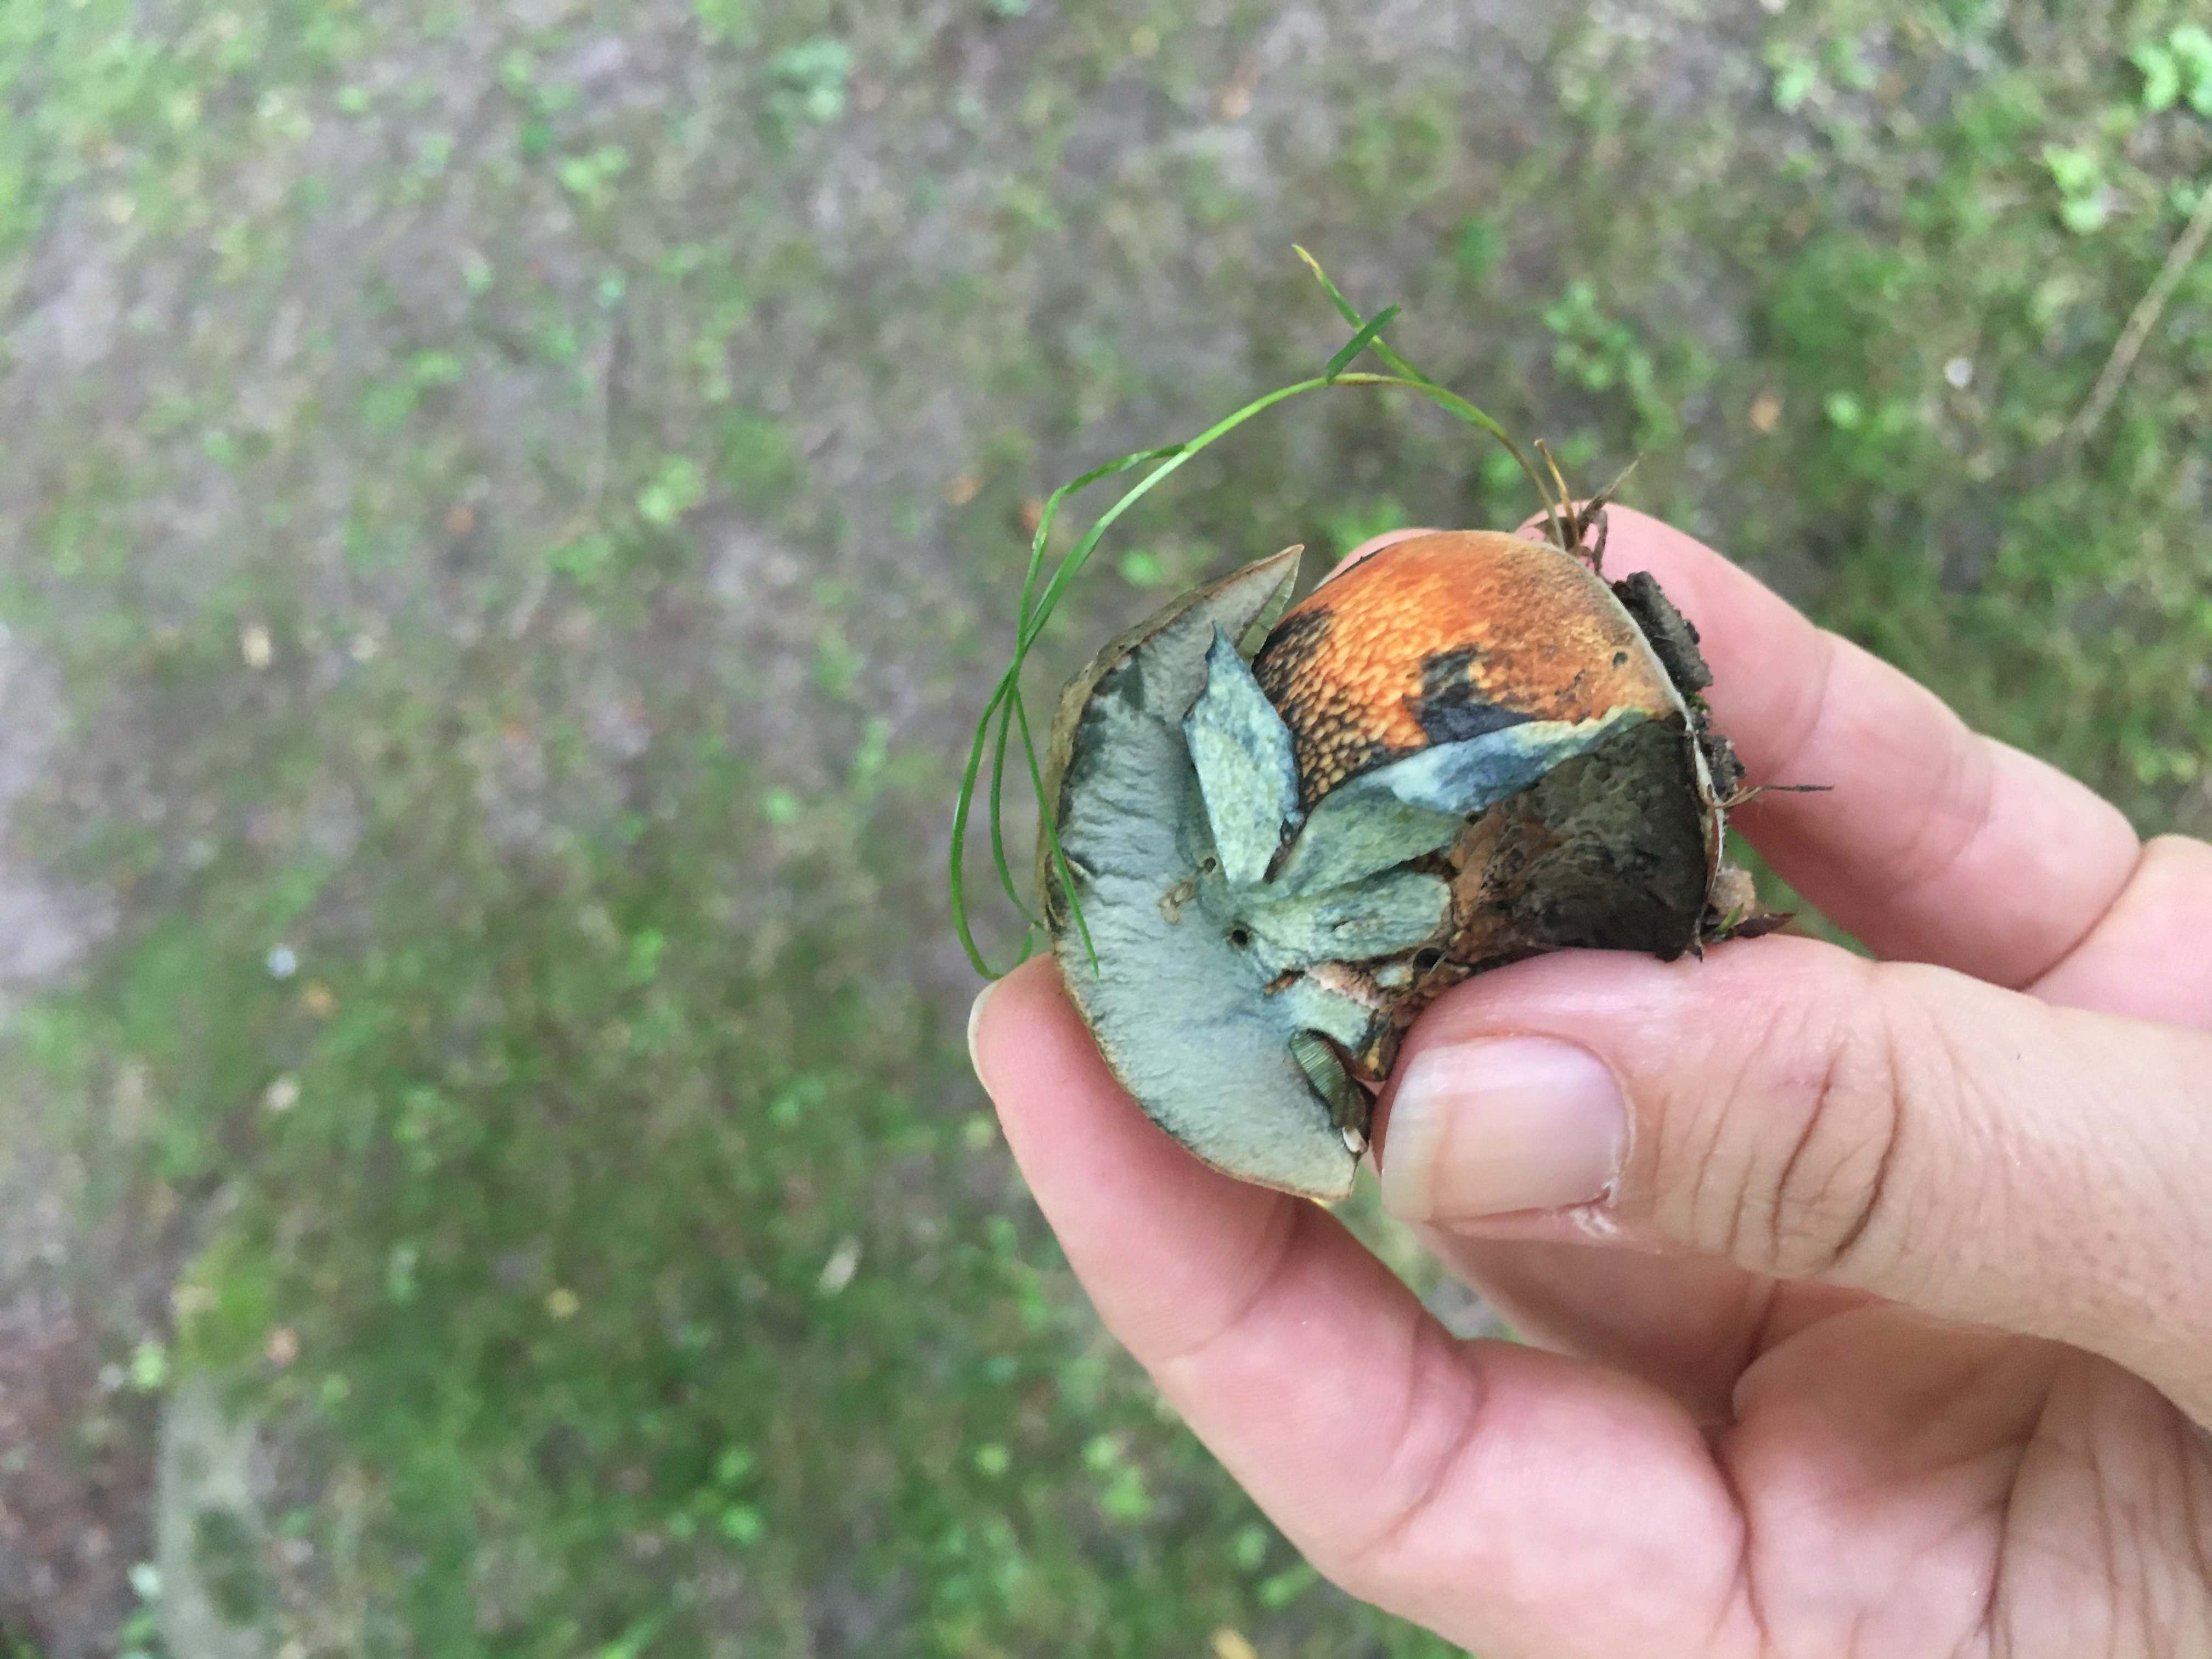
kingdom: Fungi
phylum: Basidiomycota
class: Agaricomycetes
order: Boletales
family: Boletaceae
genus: Suillellus
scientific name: Suillellus luridus
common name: netstokket indigorørhat
